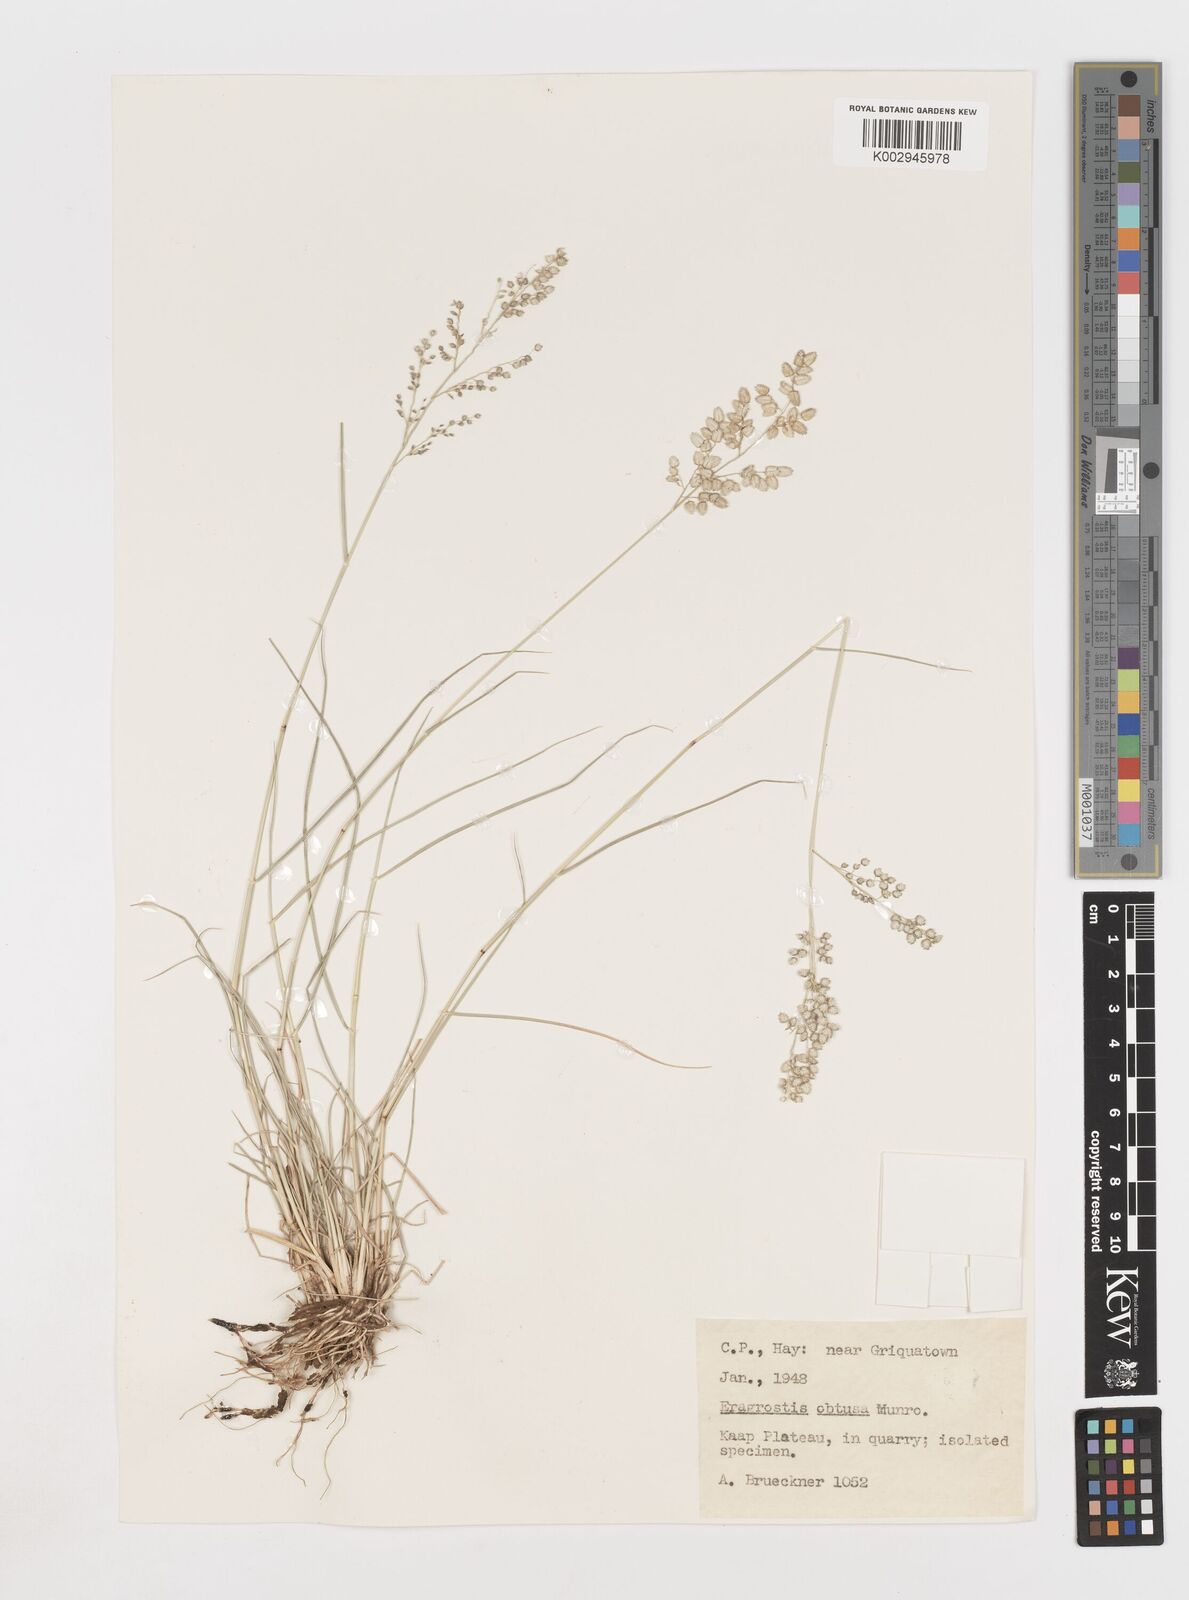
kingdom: Plantae
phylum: Tracheophyta
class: Liliopsida
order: Poales
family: Poaceae
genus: Eragrostis
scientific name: Eragrostis obtusa
